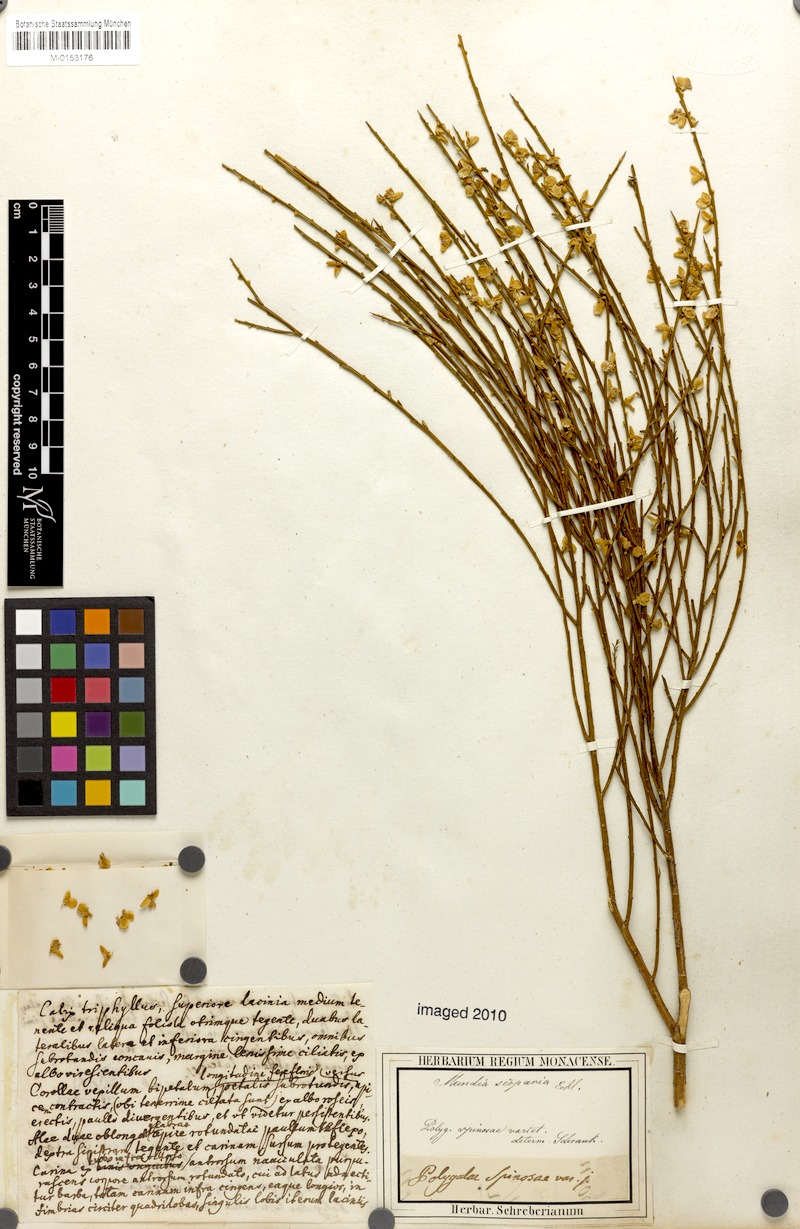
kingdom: Plantae
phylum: Tracheophyta
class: Magnoliopsida
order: Fabales
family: Polygalaceae
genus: Muraltia
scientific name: Muraltia scoparia
